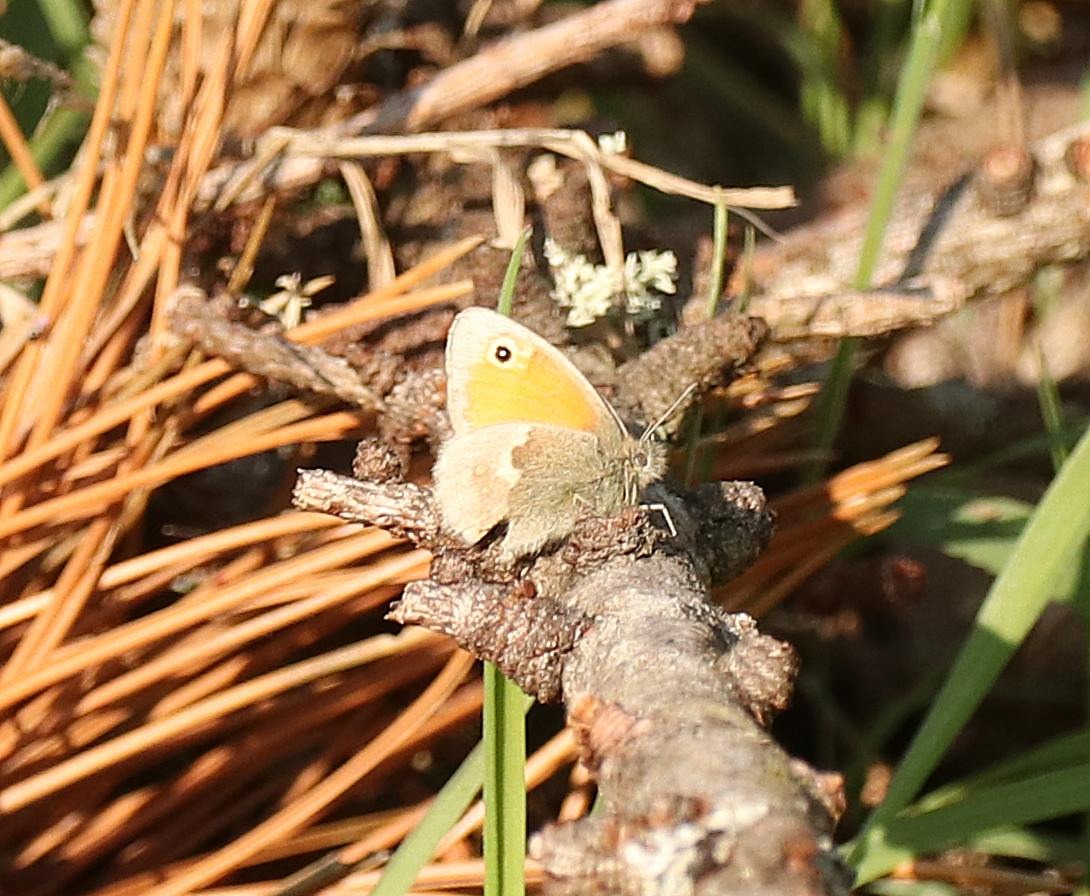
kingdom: Animalia
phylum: Arthropoda
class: Insecta
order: Lepidoptera
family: Nymphalidae
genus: Coenonympha
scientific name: Coenonympha pamphilus
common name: Okkergul randøje
